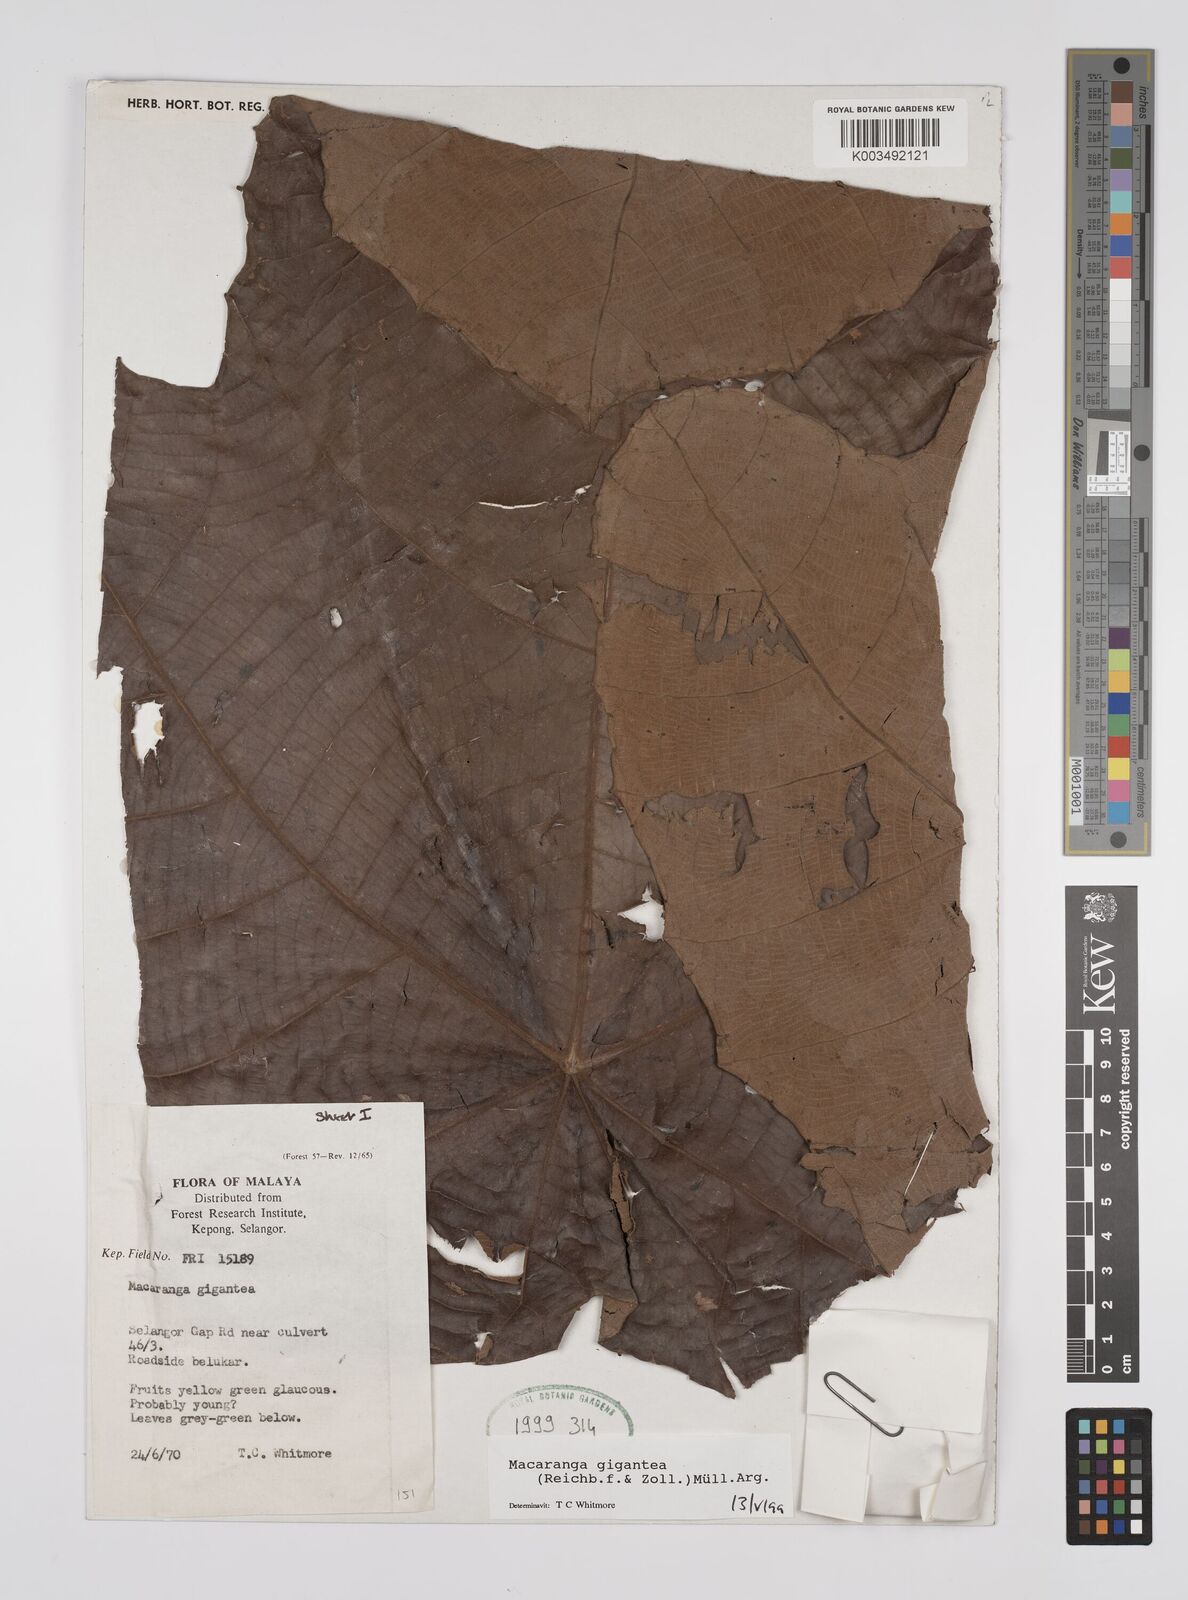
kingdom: Plantae
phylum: Tracheophyta
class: Magnoliopsida
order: Malpighiales
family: Euphorbiaceae
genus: Macaranga
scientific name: Macaranga gigantea
